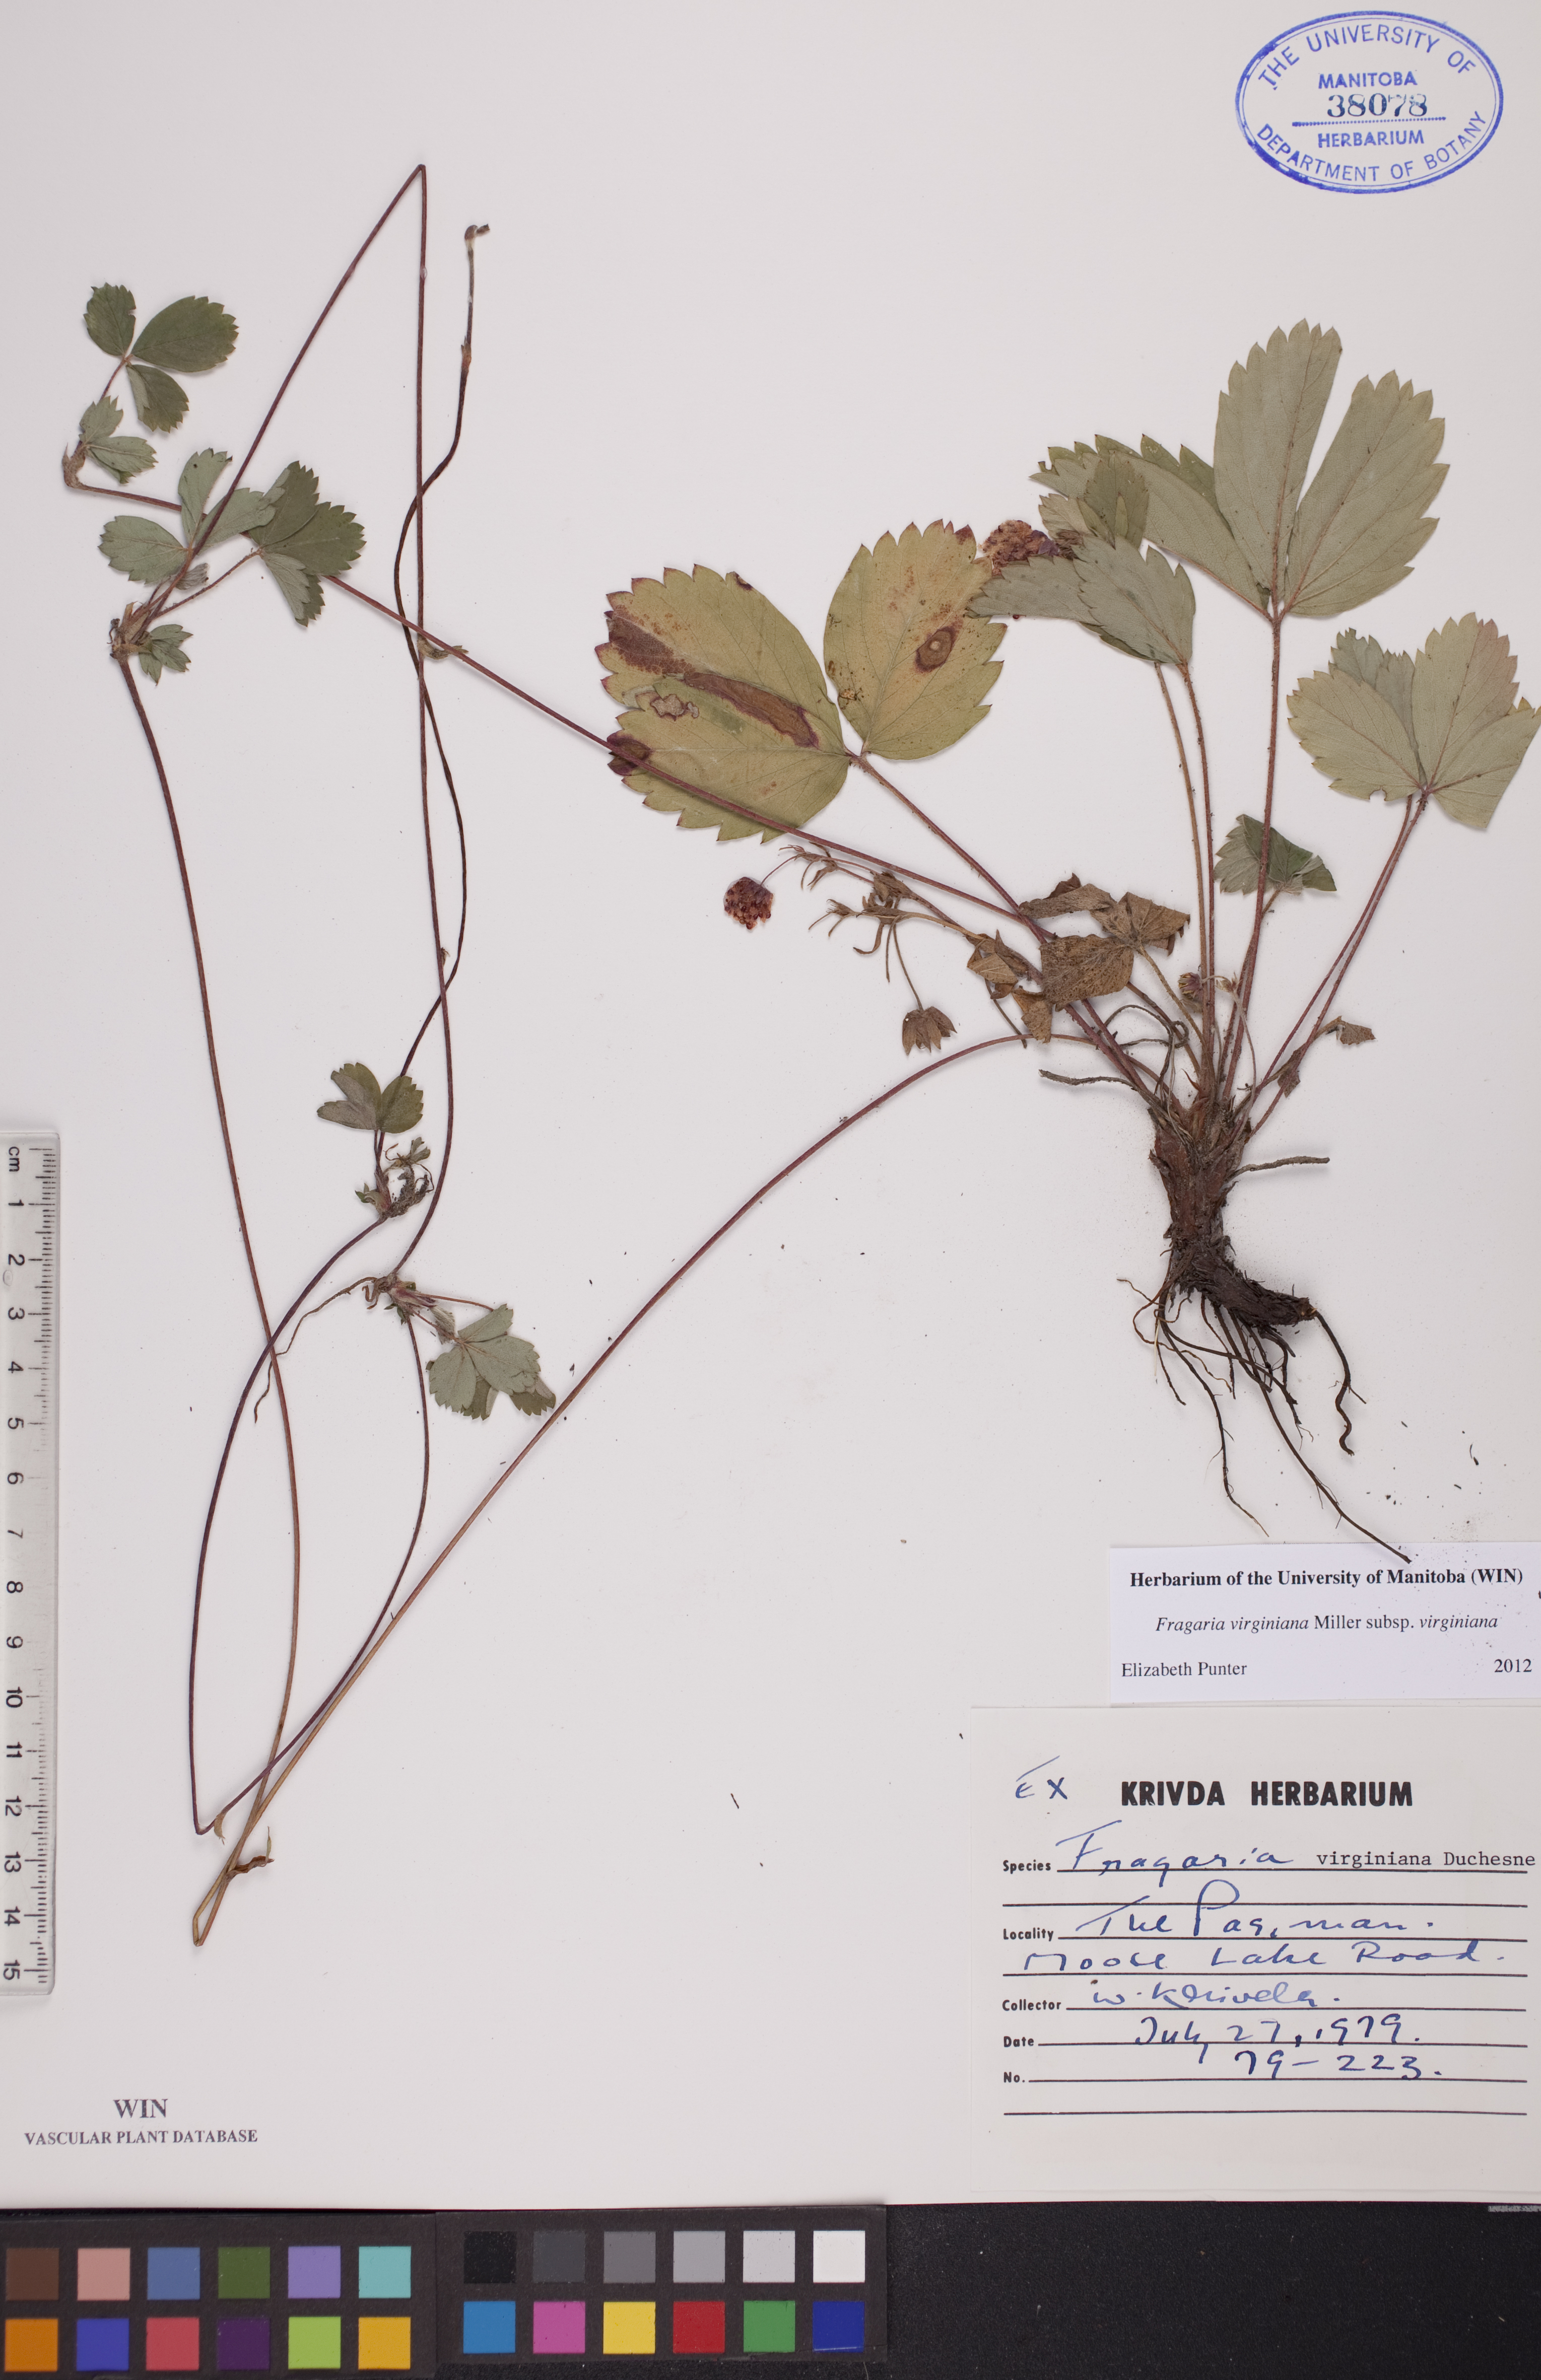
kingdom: Plantae
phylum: Tracheophyta
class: Magnoliopsida
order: Rosales
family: Rosaceae
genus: Fragaria
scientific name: Fragaria virginiana
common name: Thickleaved wild strawberry
